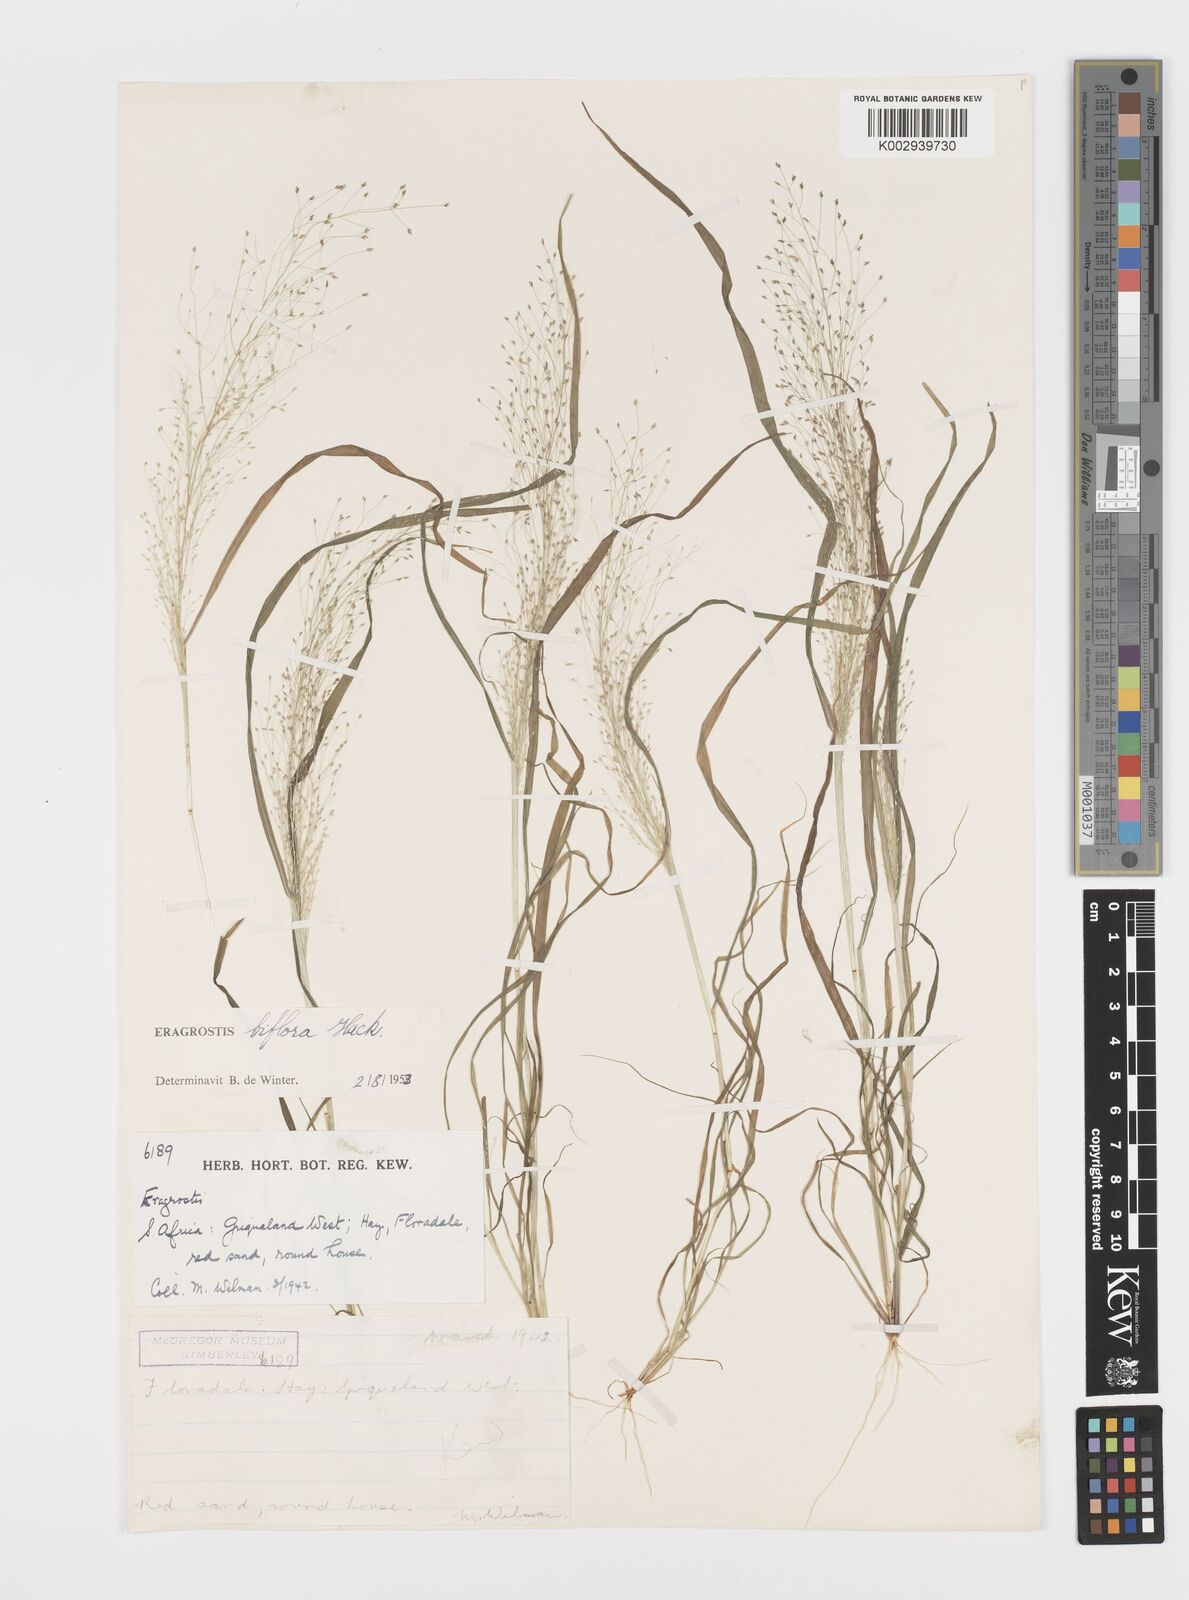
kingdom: Plantae
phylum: Tracheophyta
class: Liliopsida
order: Poales
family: Poaceae
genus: Eragrostis
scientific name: Eragrostis biflora
